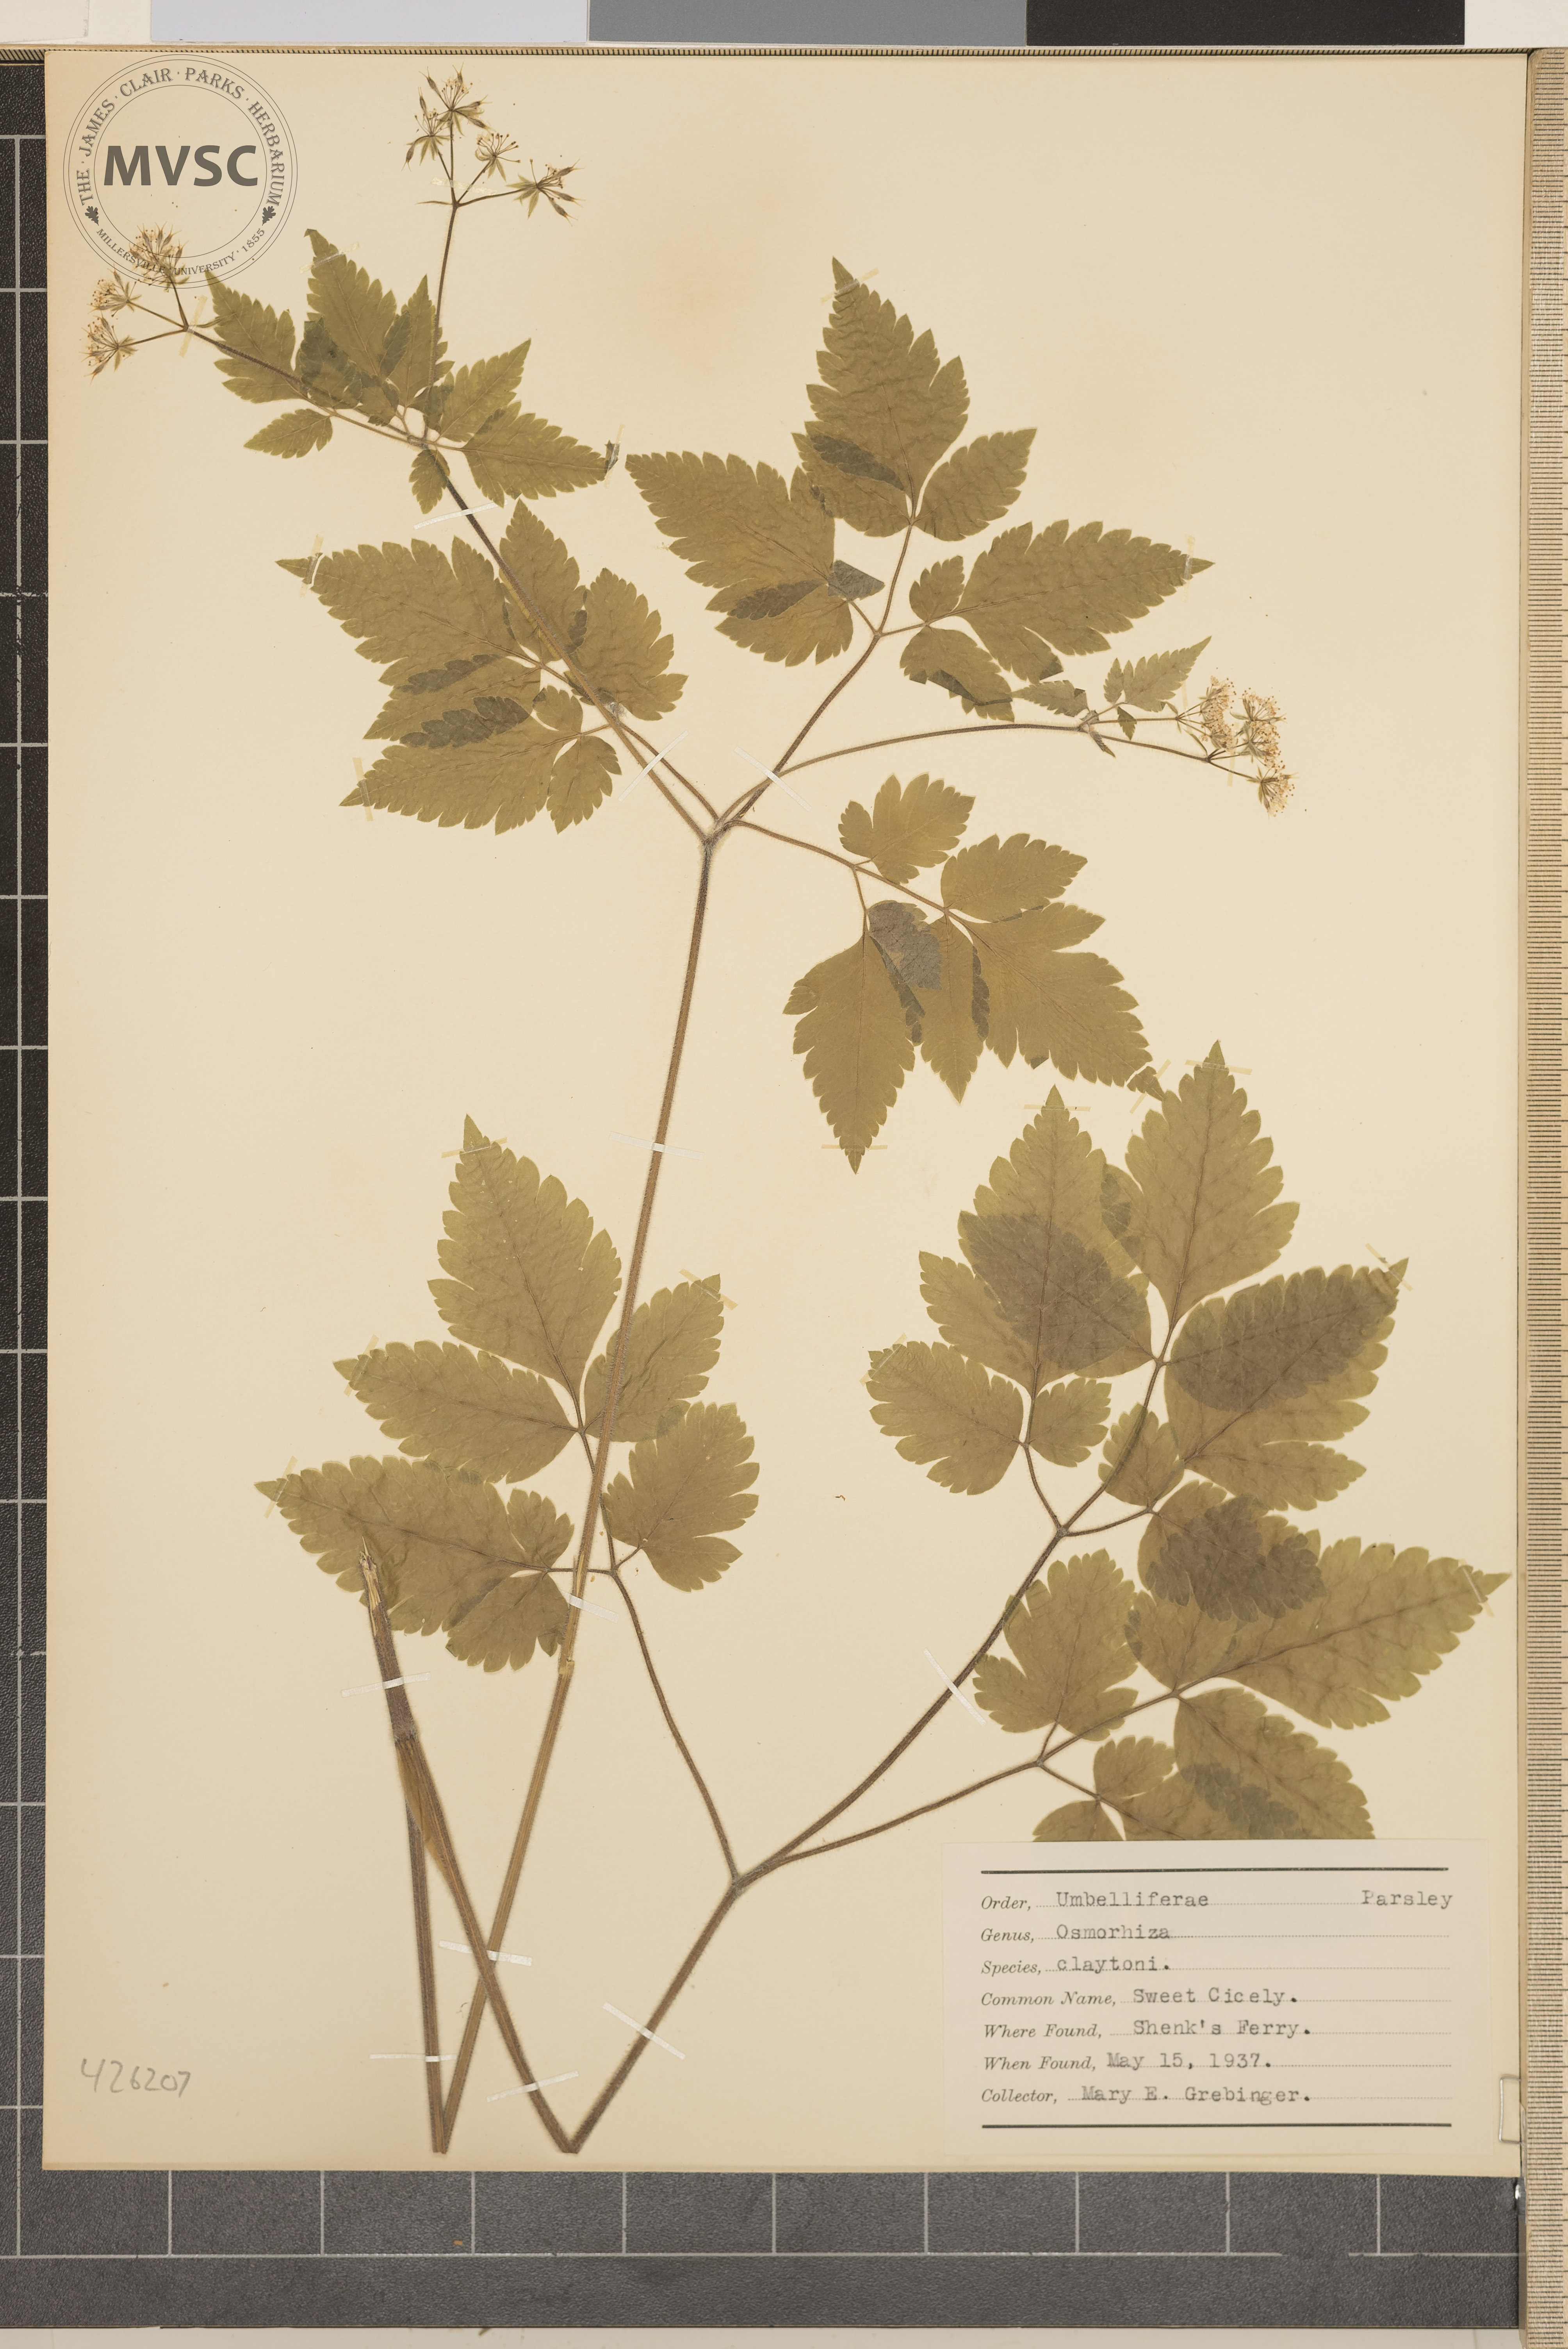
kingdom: Plantae
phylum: Tracheophyta
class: Magnoliopsida
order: Apiales
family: Apiaceae
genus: Osmorhiza
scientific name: Osmorhiza claytonii
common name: Sweet Cicely
